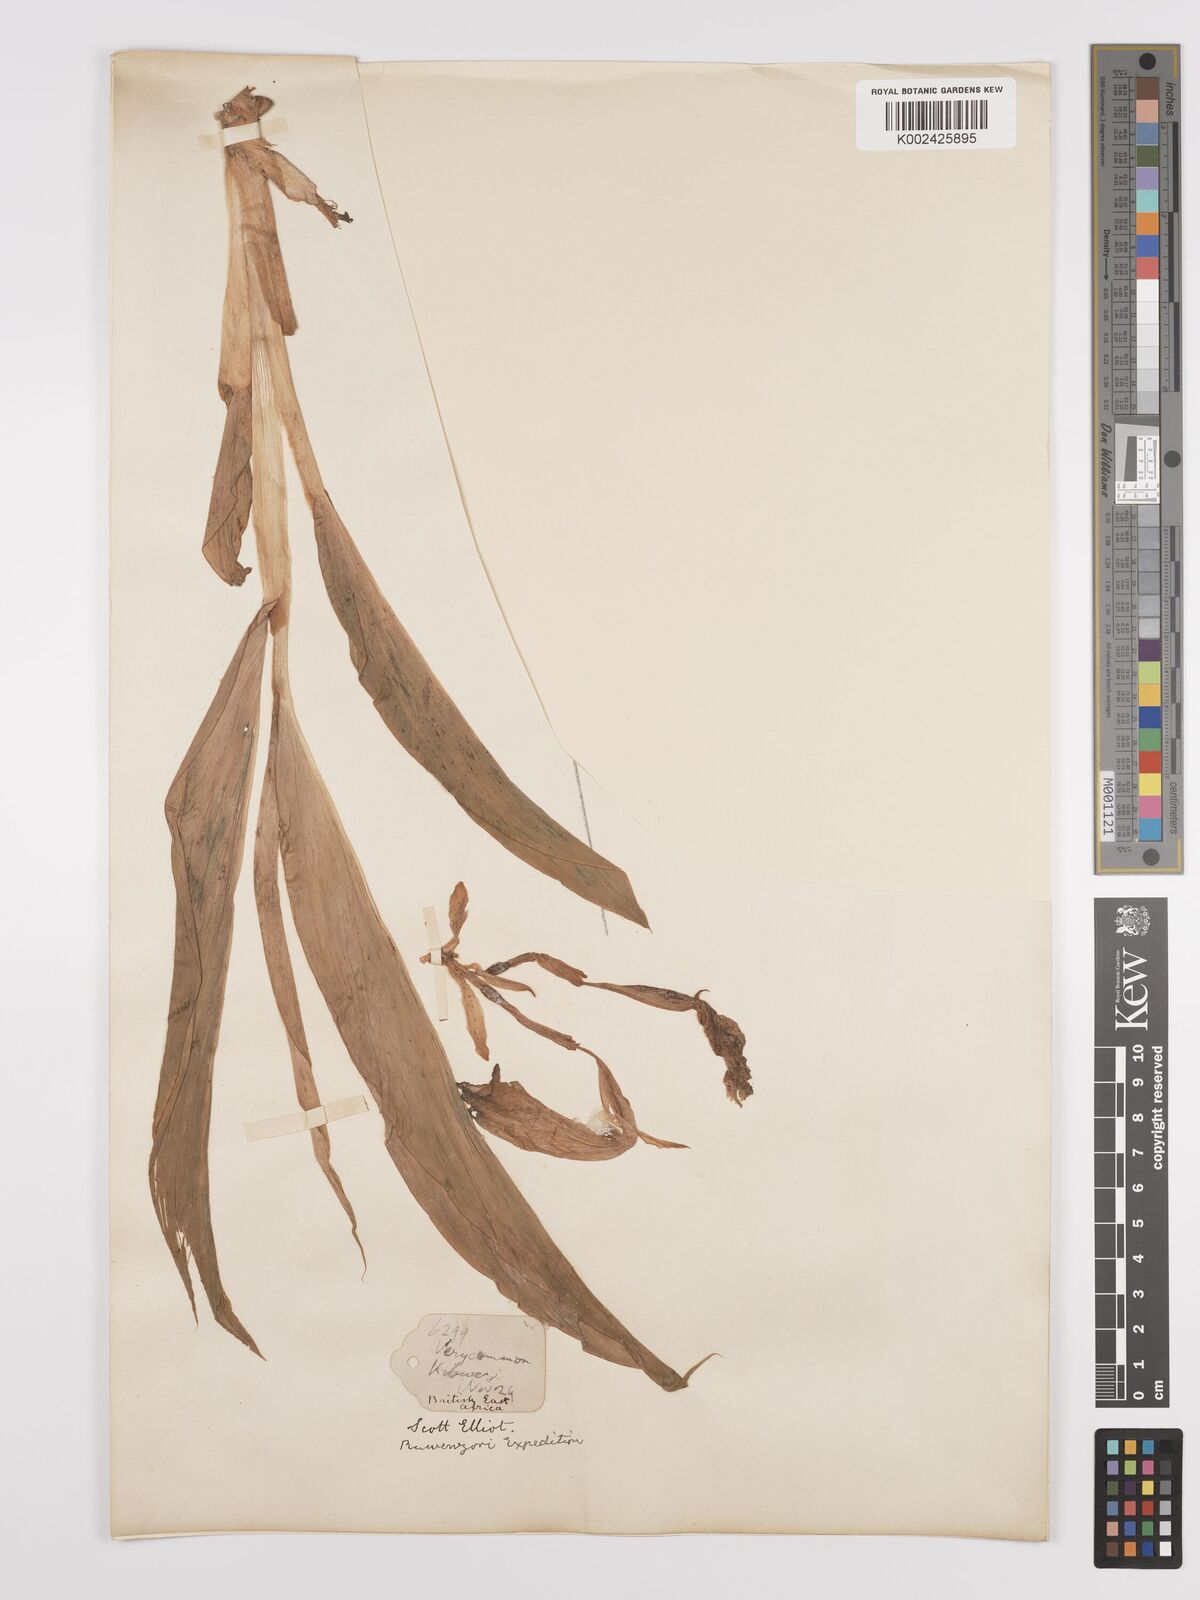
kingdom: Plantae
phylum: Tracheophyta
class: Liliopsida
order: Zingiberales
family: Zingiberaceae
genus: Siphonochilus
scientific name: Siphonochilus aethiopicus
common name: African-ginger
